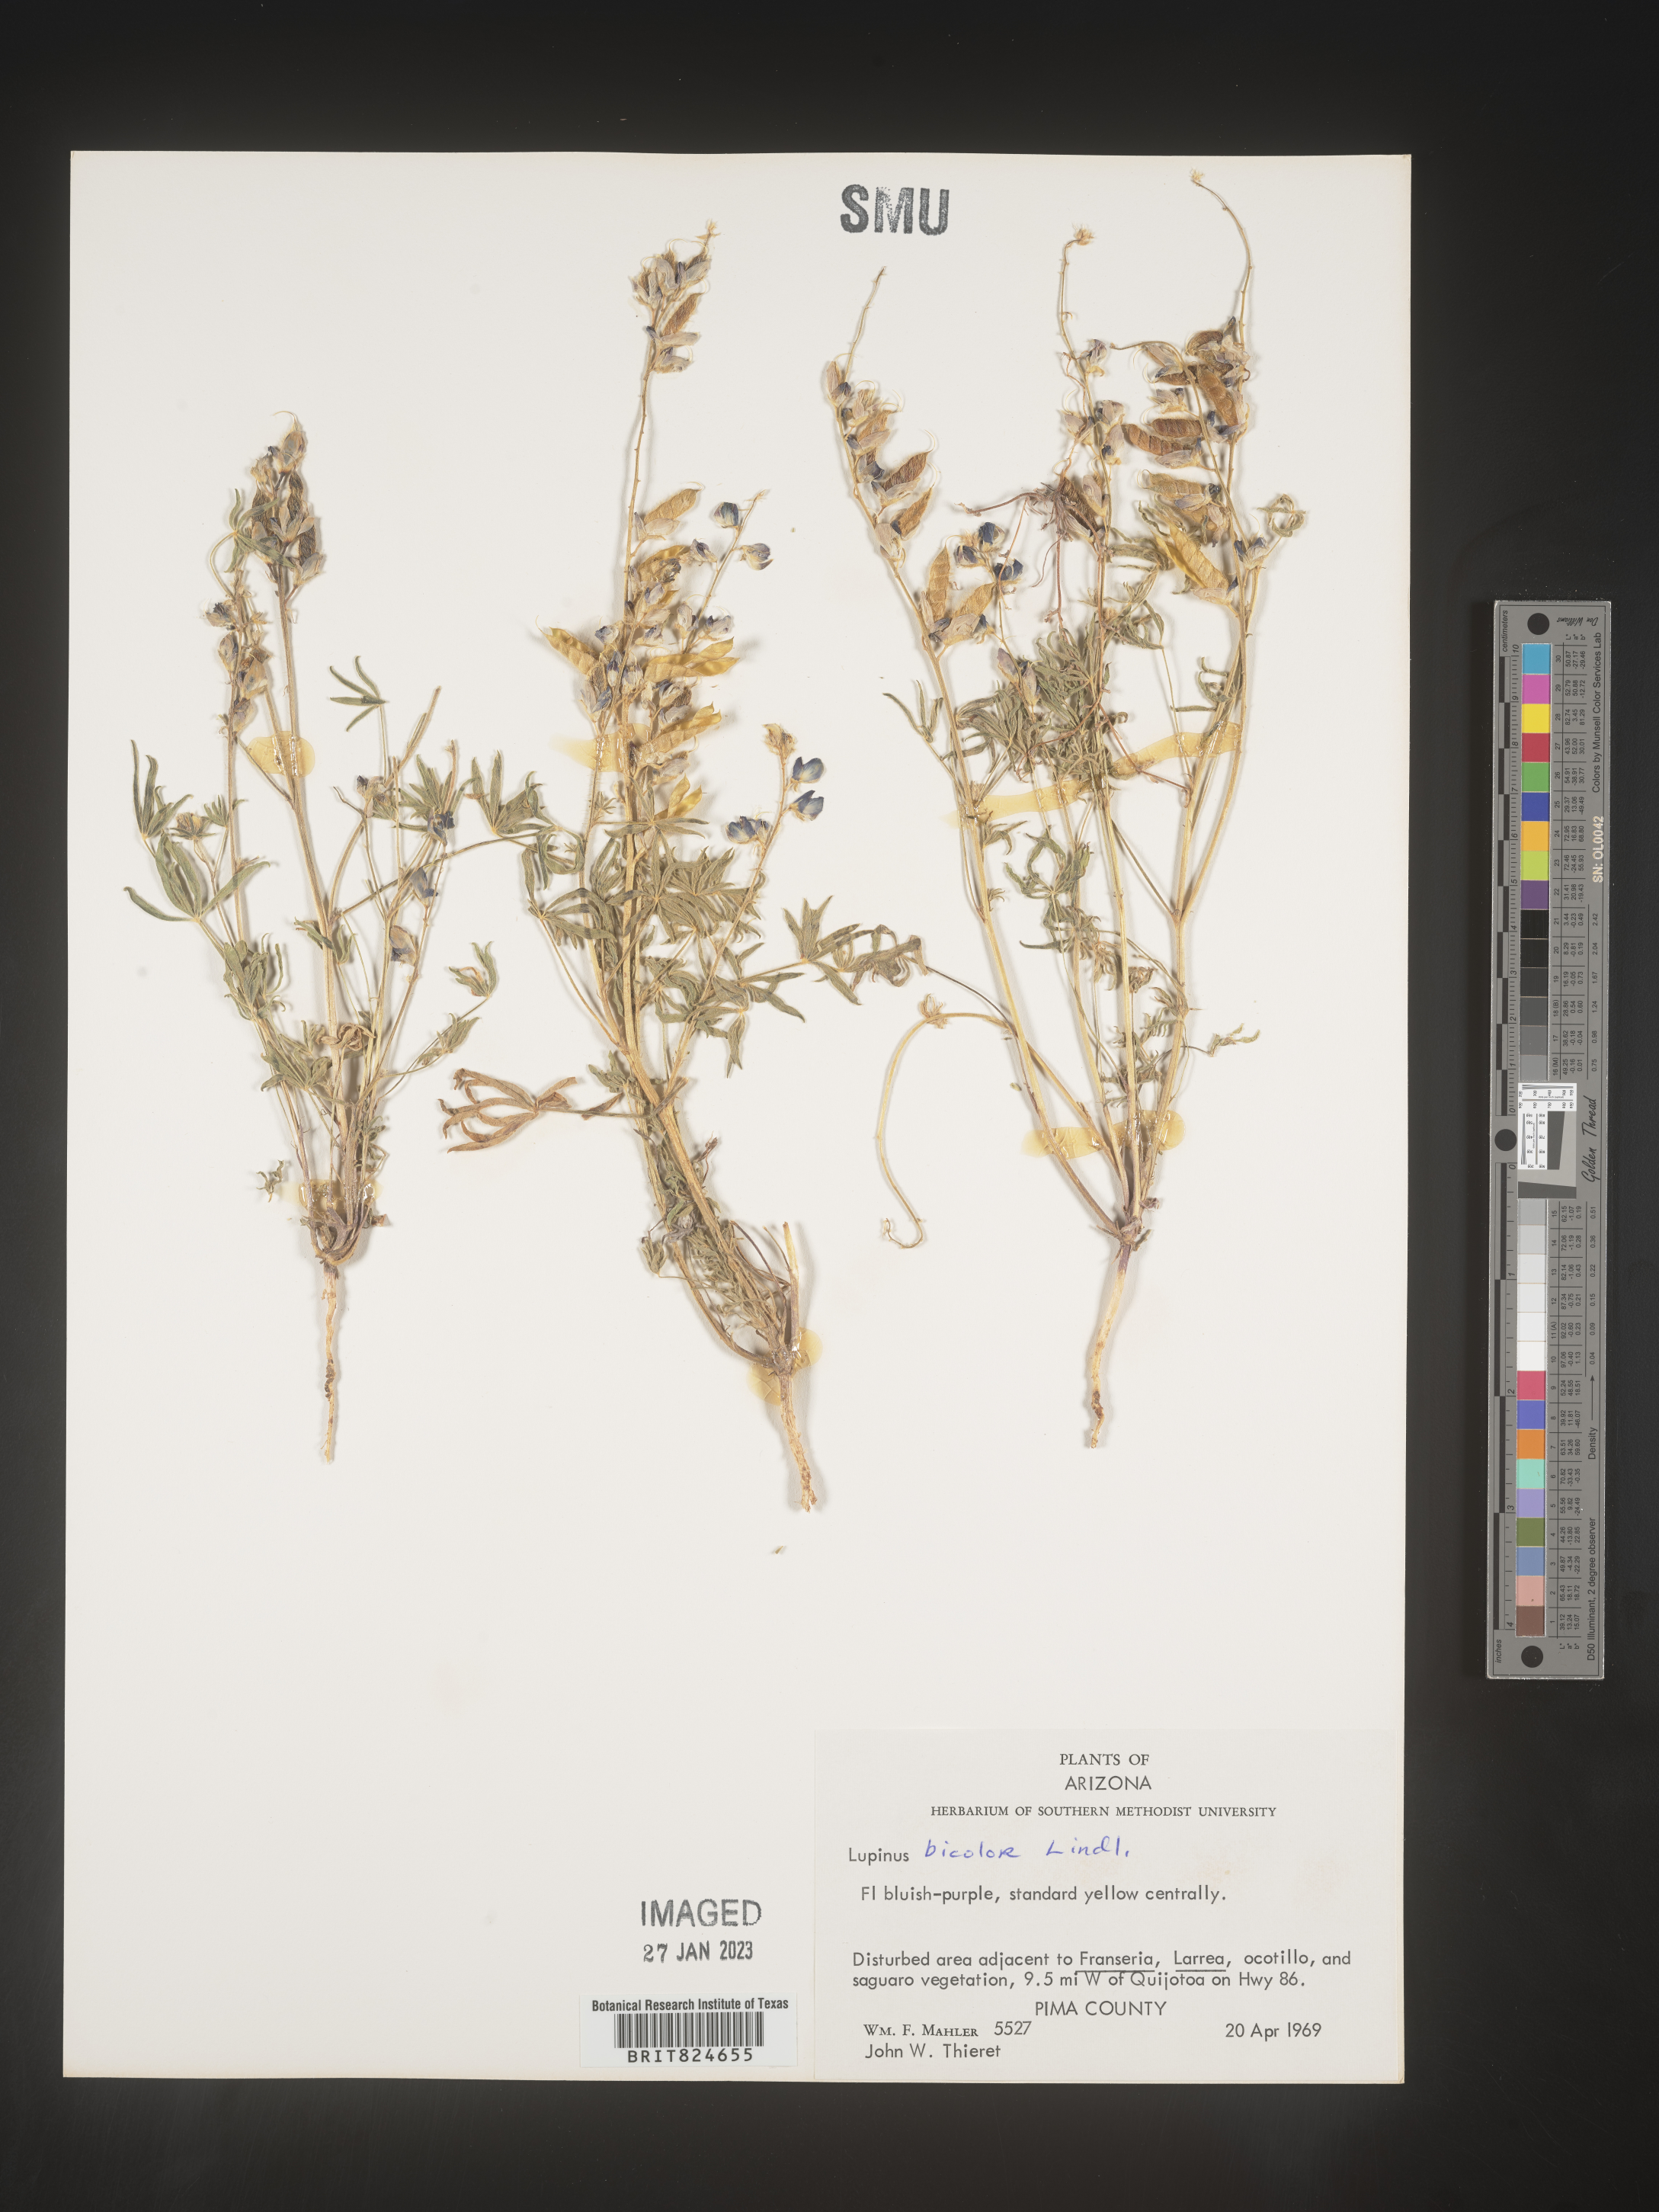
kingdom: Plantae
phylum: Tracheophyta
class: Magnoliopsida
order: Fabales
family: Fabaceae
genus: Lupinus
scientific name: Lupinus bicolor
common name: Miniature lupine
